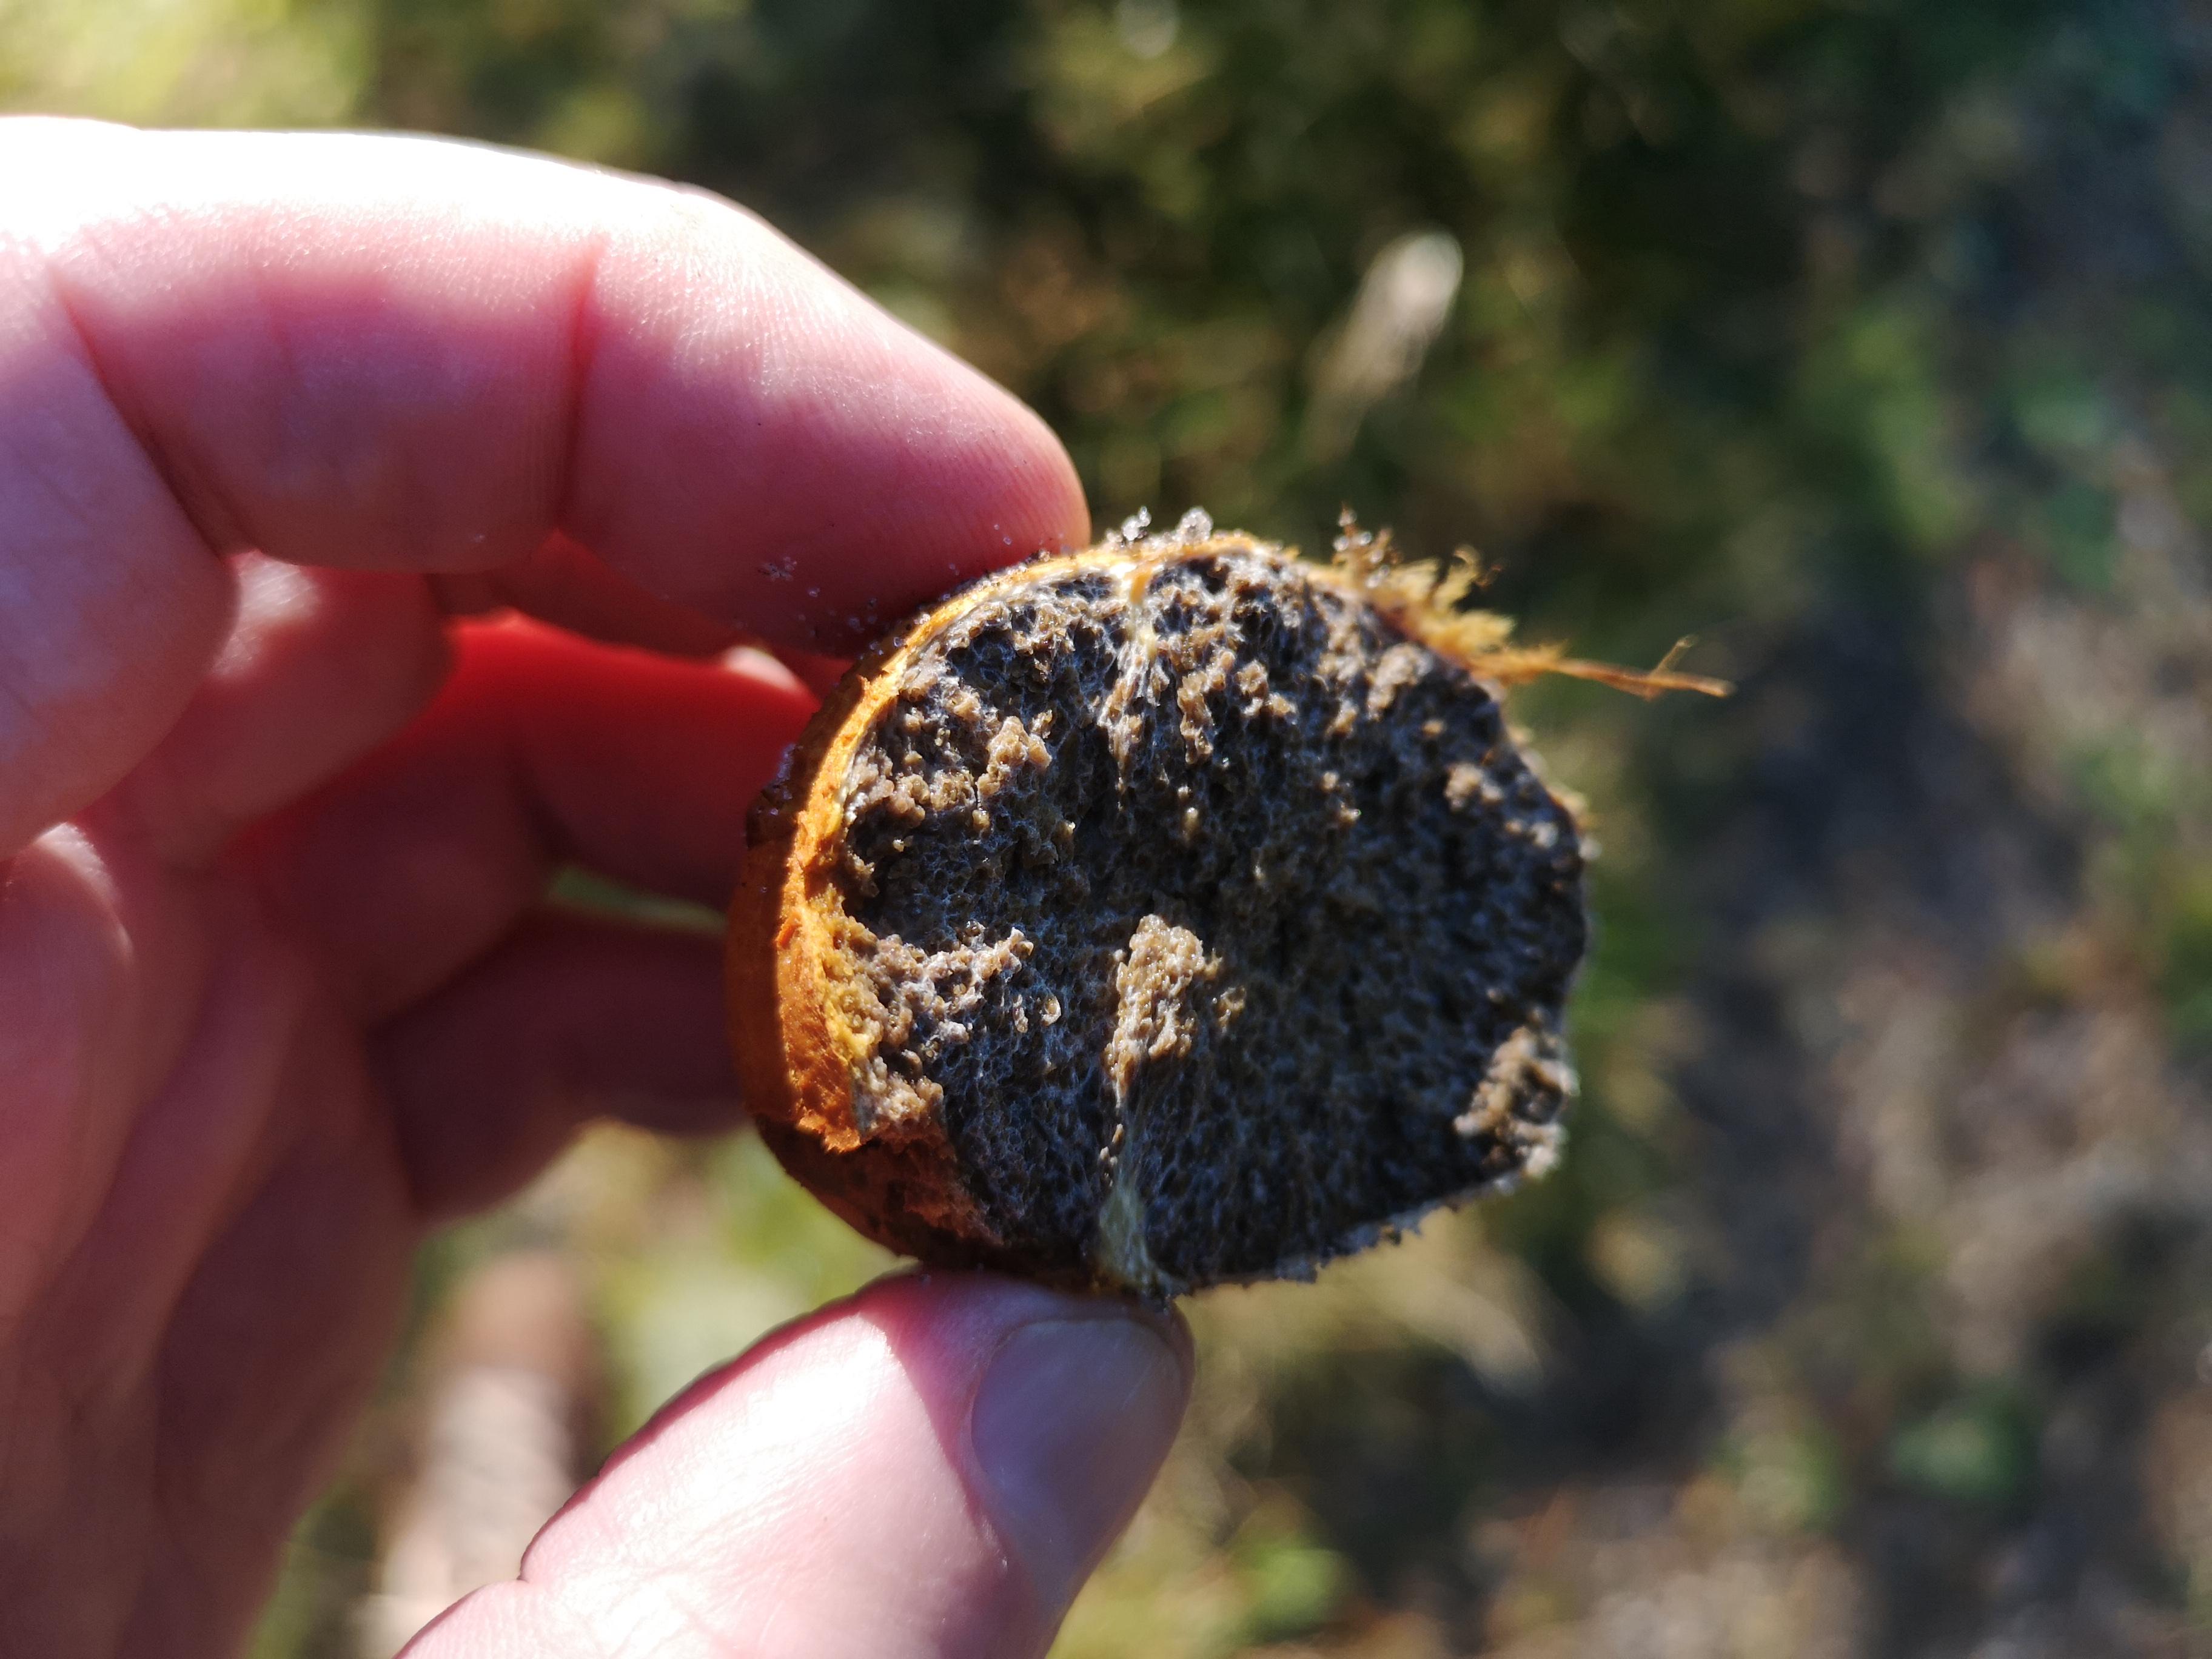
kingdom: Fungi
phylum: Basidiomycota
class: Agaricomycetes
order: Boletales
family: Rhizopogonaceae
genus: Rhizopogon
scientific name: Rhizopogon obtextus
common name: gul skægtrøffel
